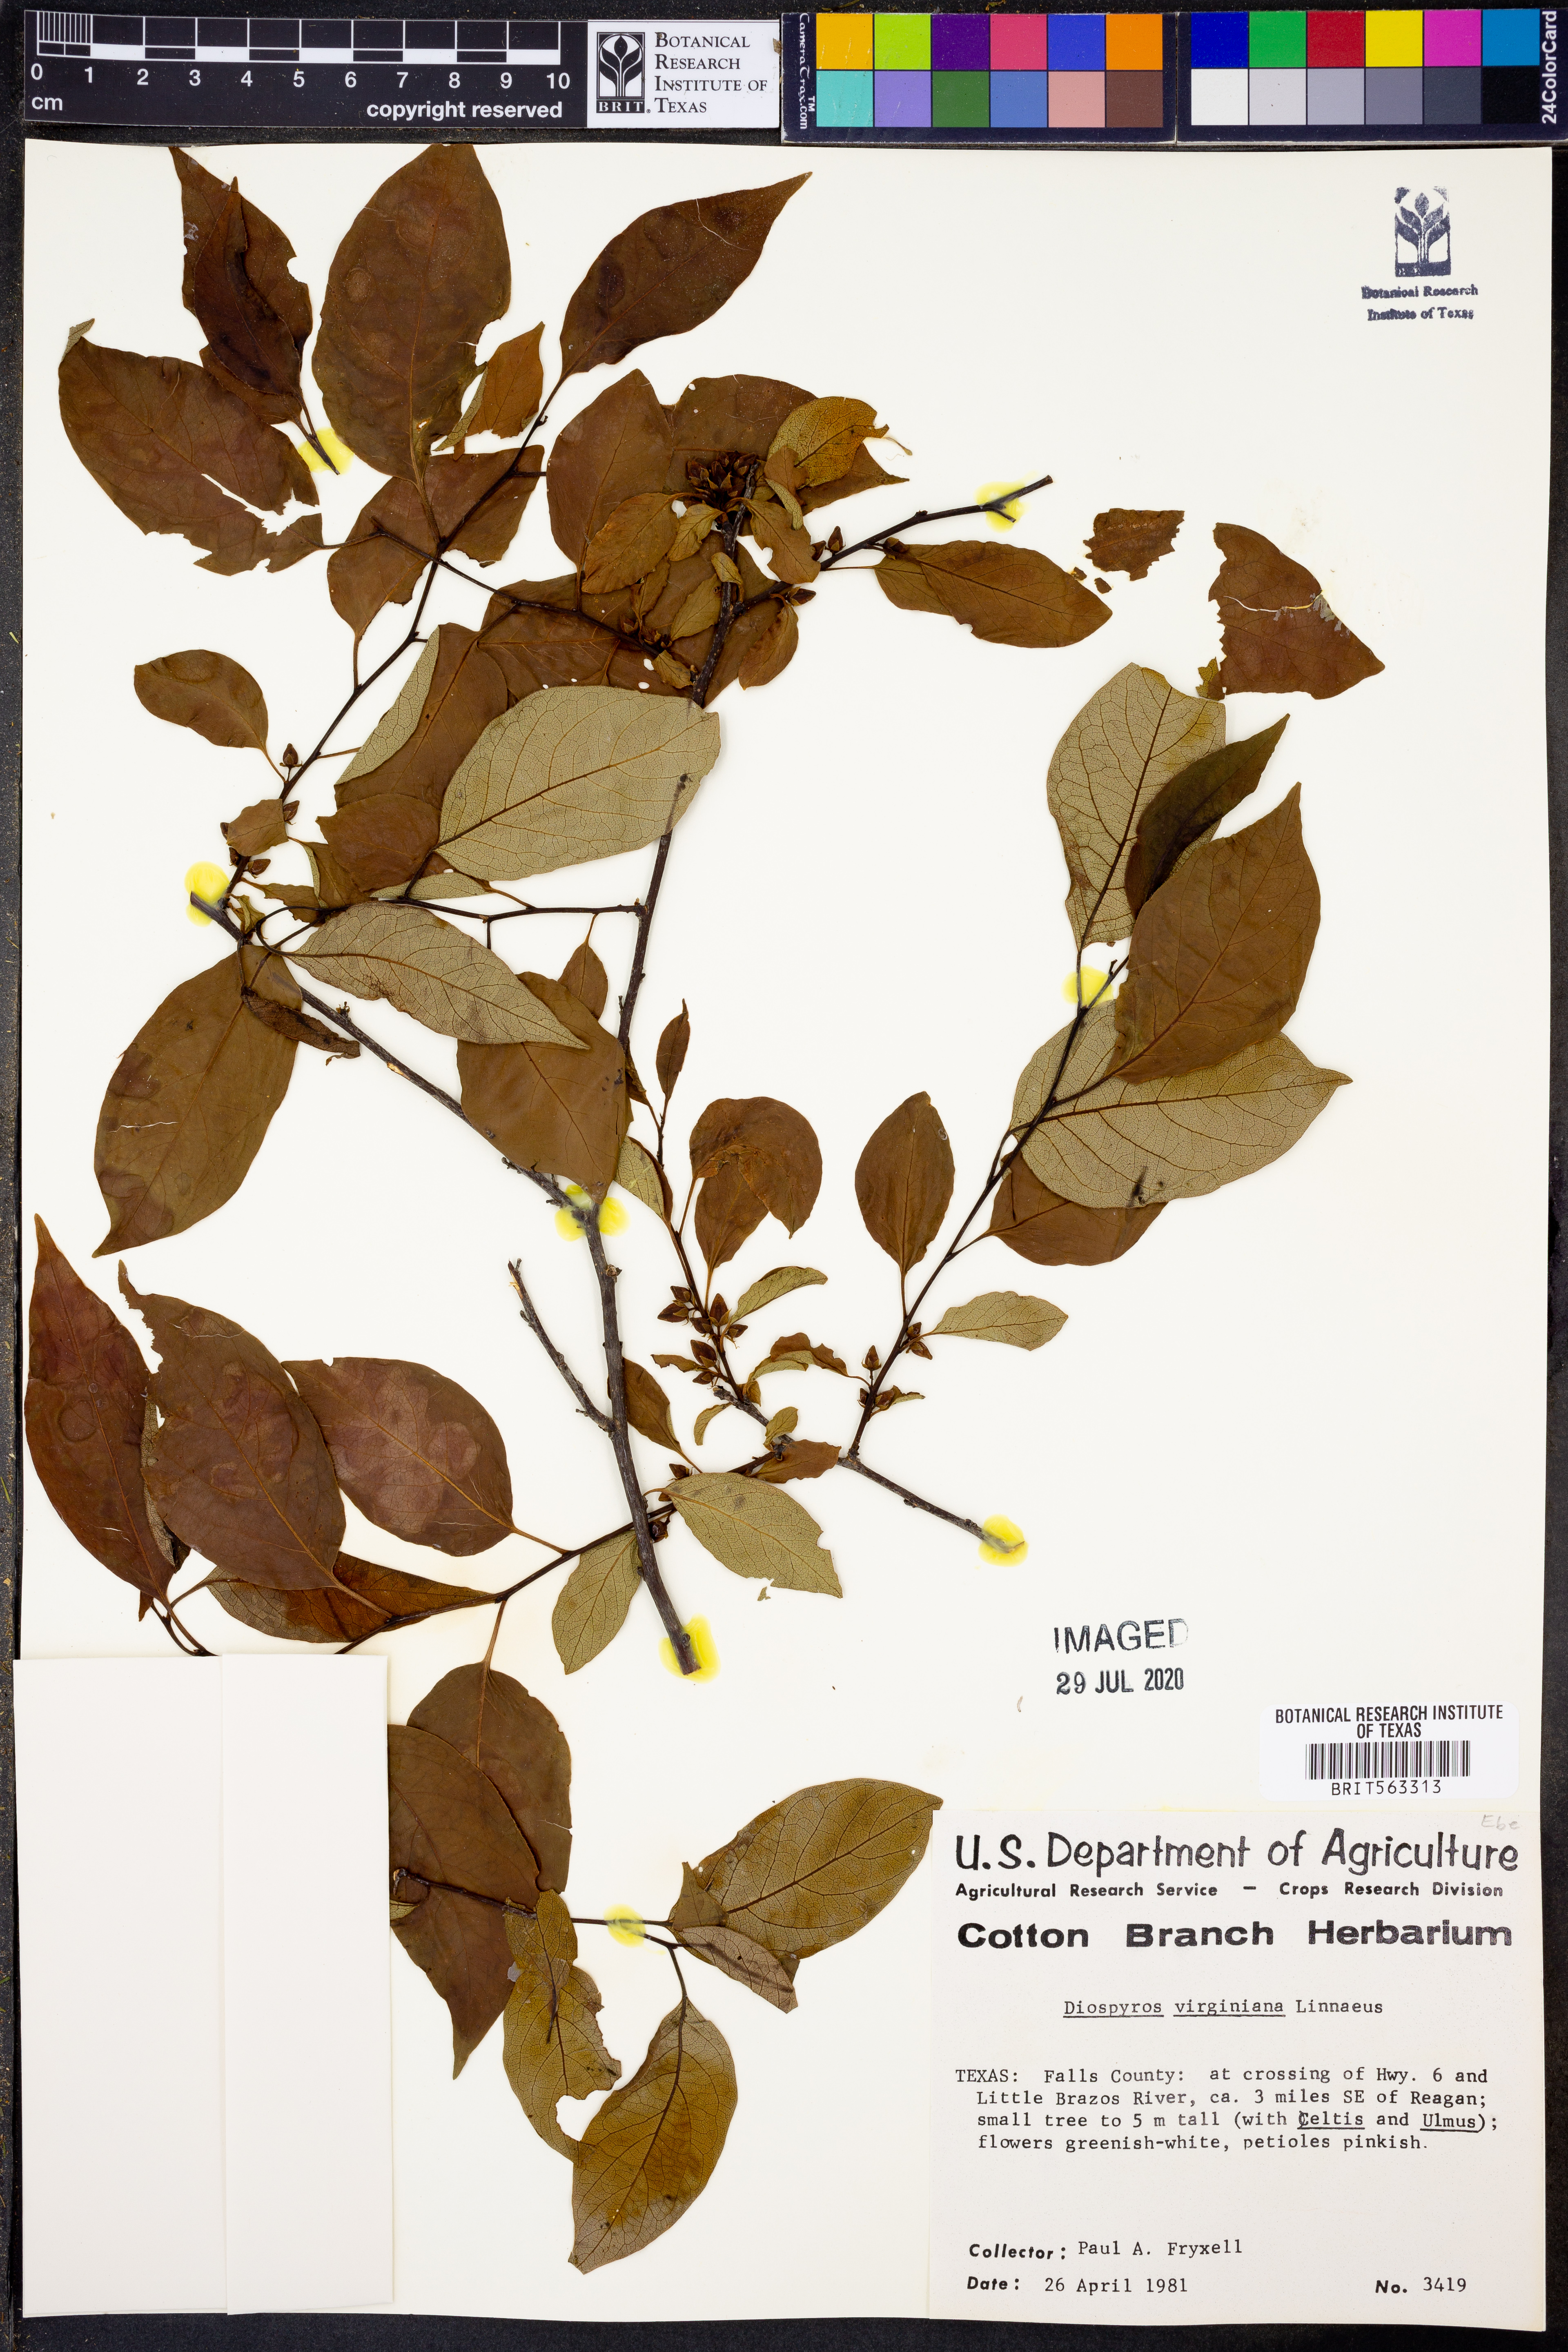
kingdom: Plantae
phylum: Tracheophyta
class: Magnoliopsida
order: Ericales
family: Ebenaceae
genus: Diospyros
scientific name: Diospyros virginiana
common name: Persimmon
